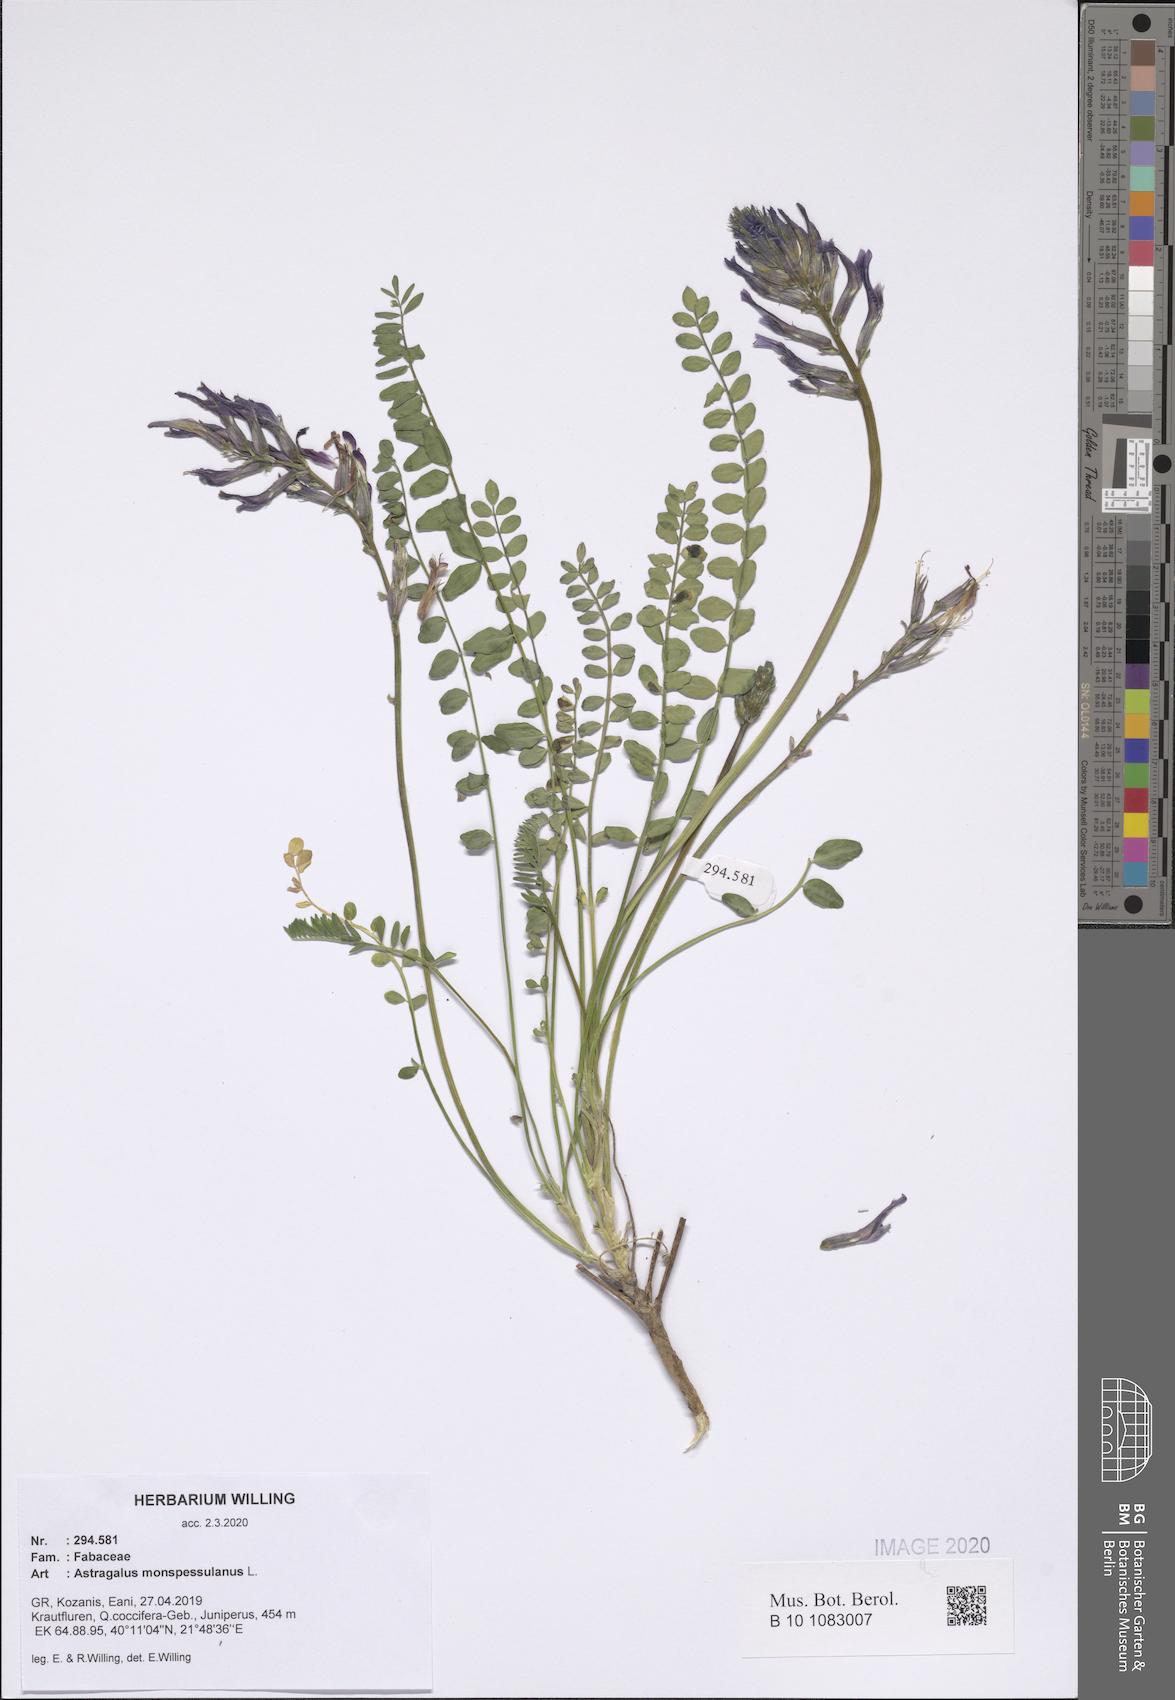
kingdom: Plantae
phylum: Tracheophyta
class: Magnoliopsida
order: Fabales
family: Fabaceae
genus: Astragalus
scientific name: Astragalus monspessulanus
